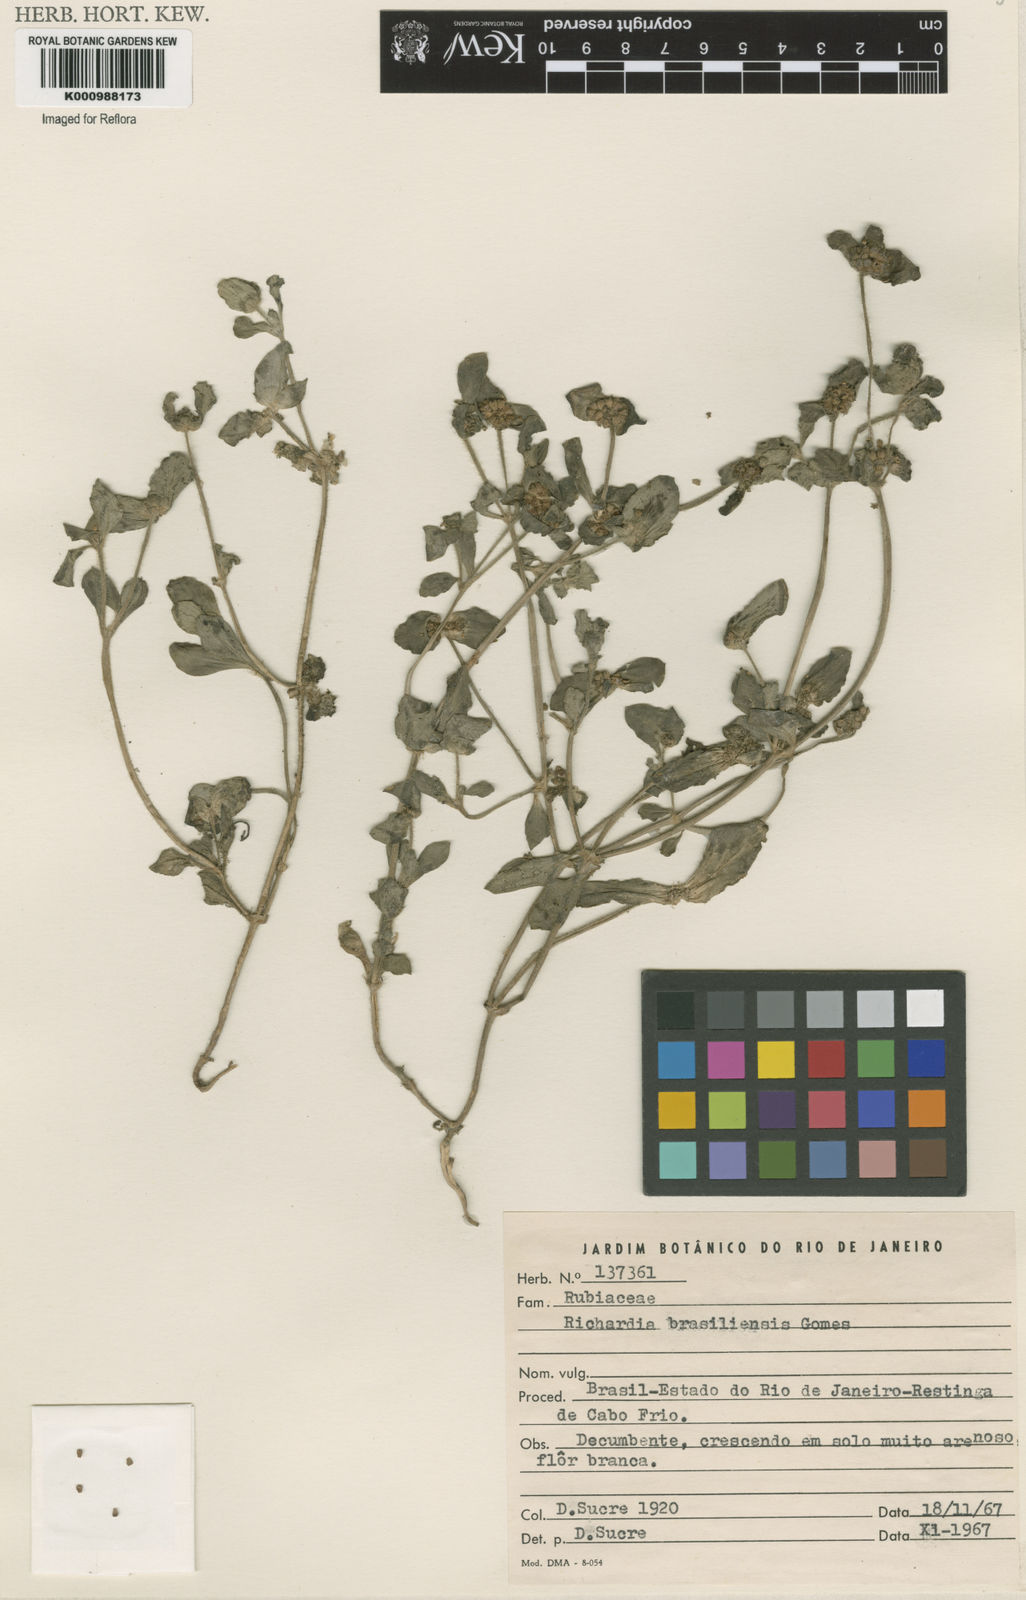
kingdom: Plantae
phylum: Tracheophyta
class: Magnoliopsida
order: Gentianales
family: Rubiaceae
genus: Richardia
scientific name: Richardia brasiliensis
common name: Tropical mexican clover
